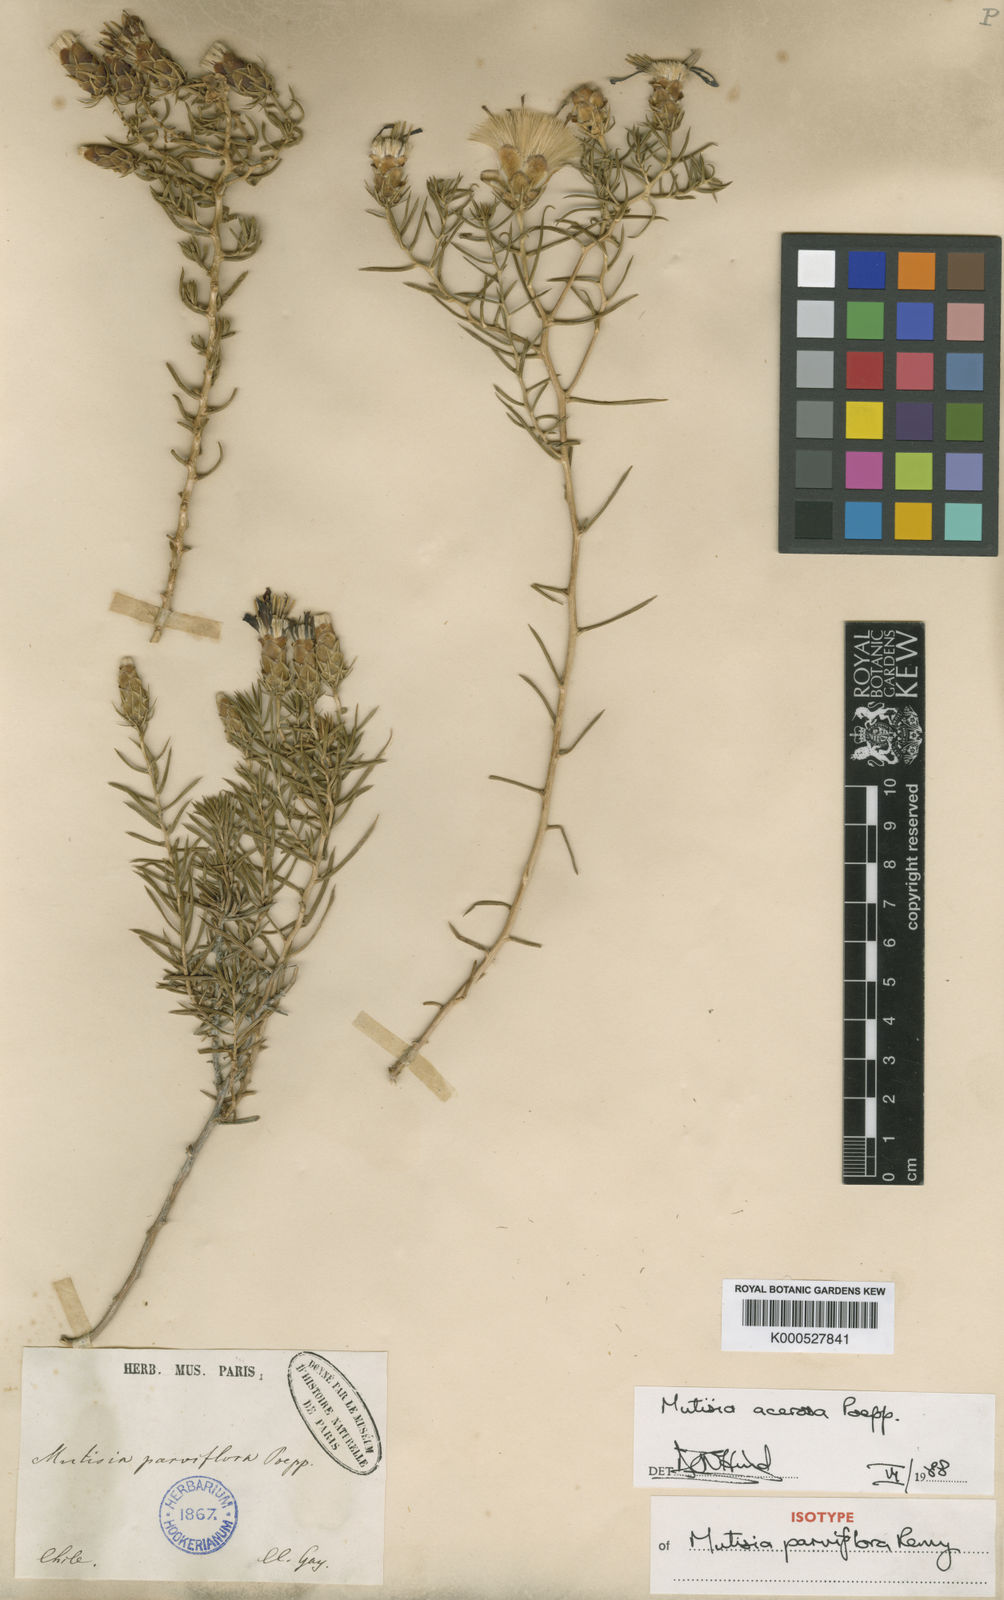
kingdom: Plantae
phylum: Tracheophyta
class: Magnoliopsida
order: Asterales
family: Asteraceae
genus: Mutisia
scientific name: Mutisia acerosa
